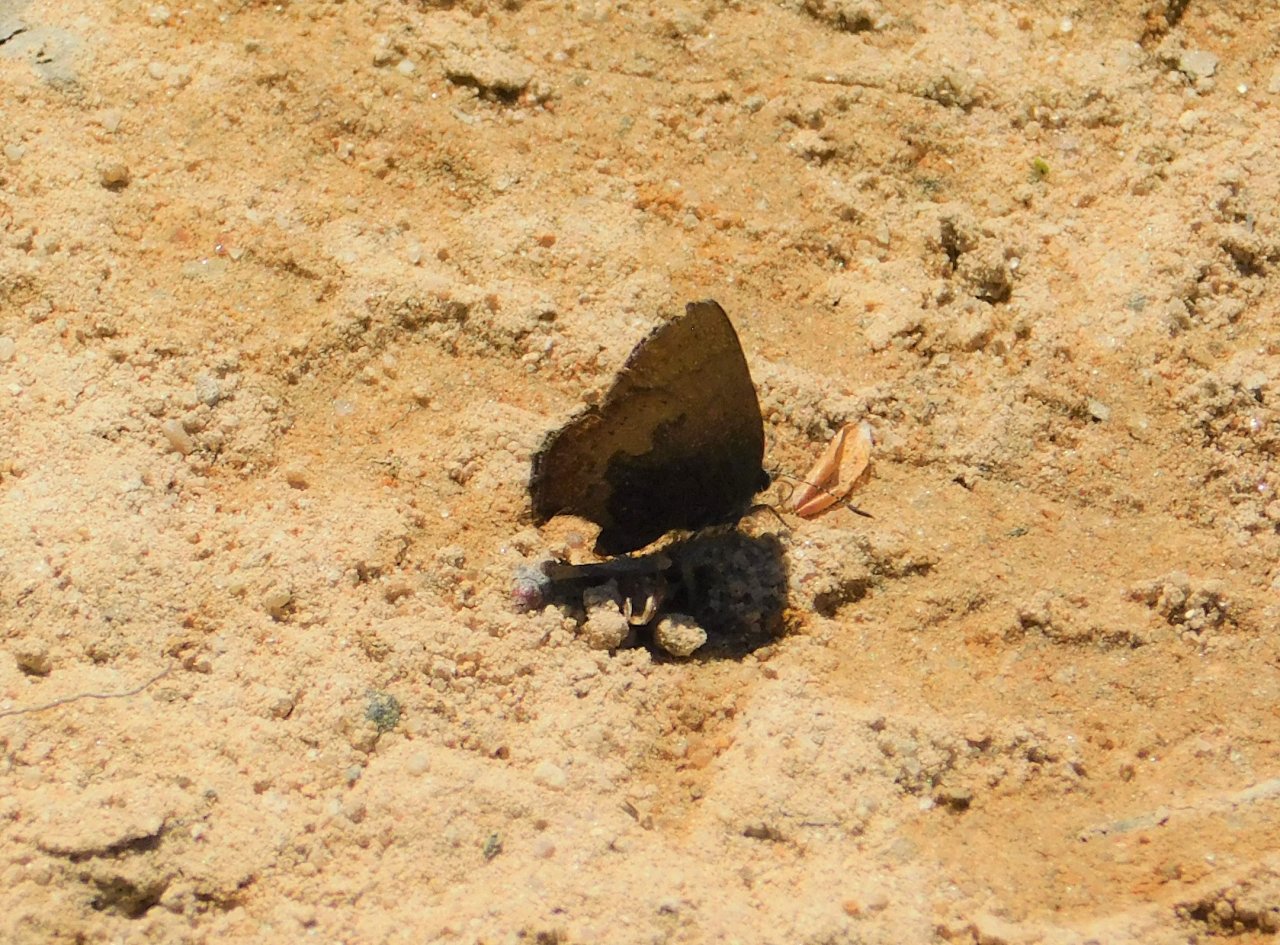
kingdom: Animalia
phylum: Arthropoda
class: Insecta
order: Lepidoptera
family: Lycaenidae
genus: Incisalia
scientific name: Incisalia irioides
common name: Brown Elfin
